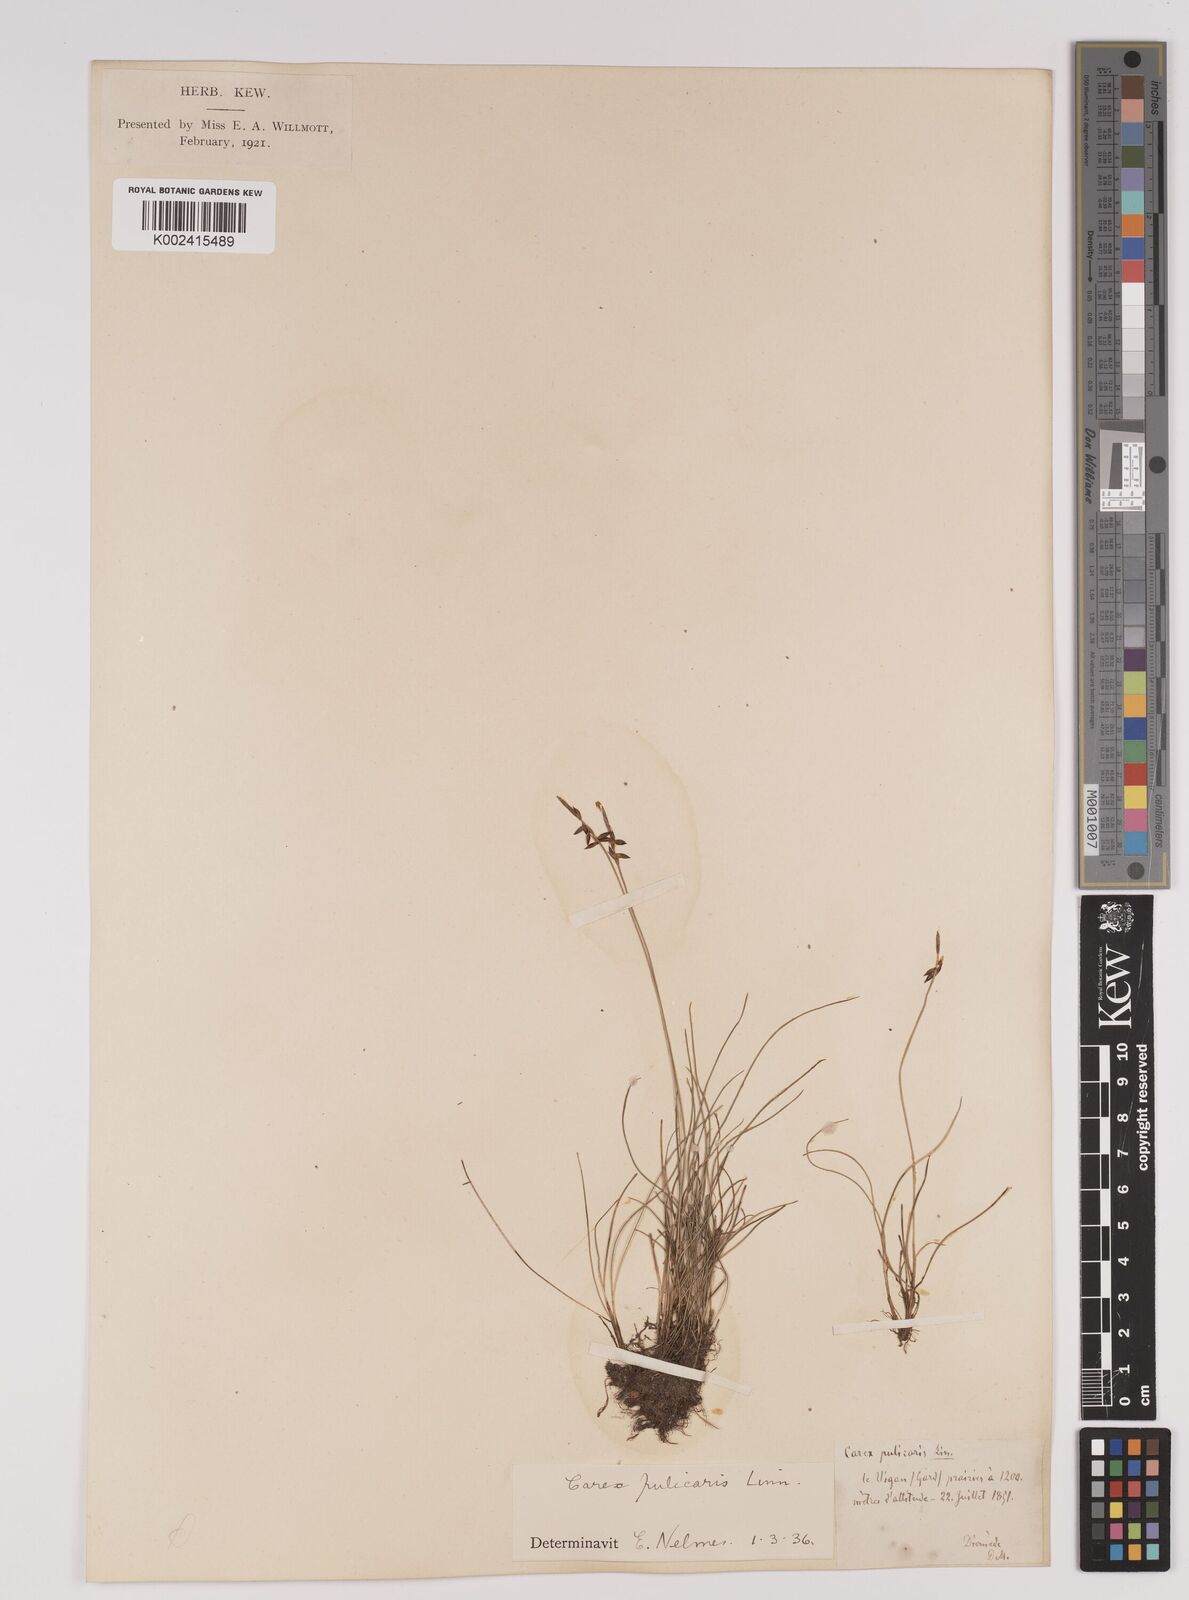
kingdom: Plantae
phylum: Tracheophyta
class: Liliopsida
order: Poales
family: Cyperaceae
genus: Carex
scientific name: Carex pulicaris
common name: Flea sedge
